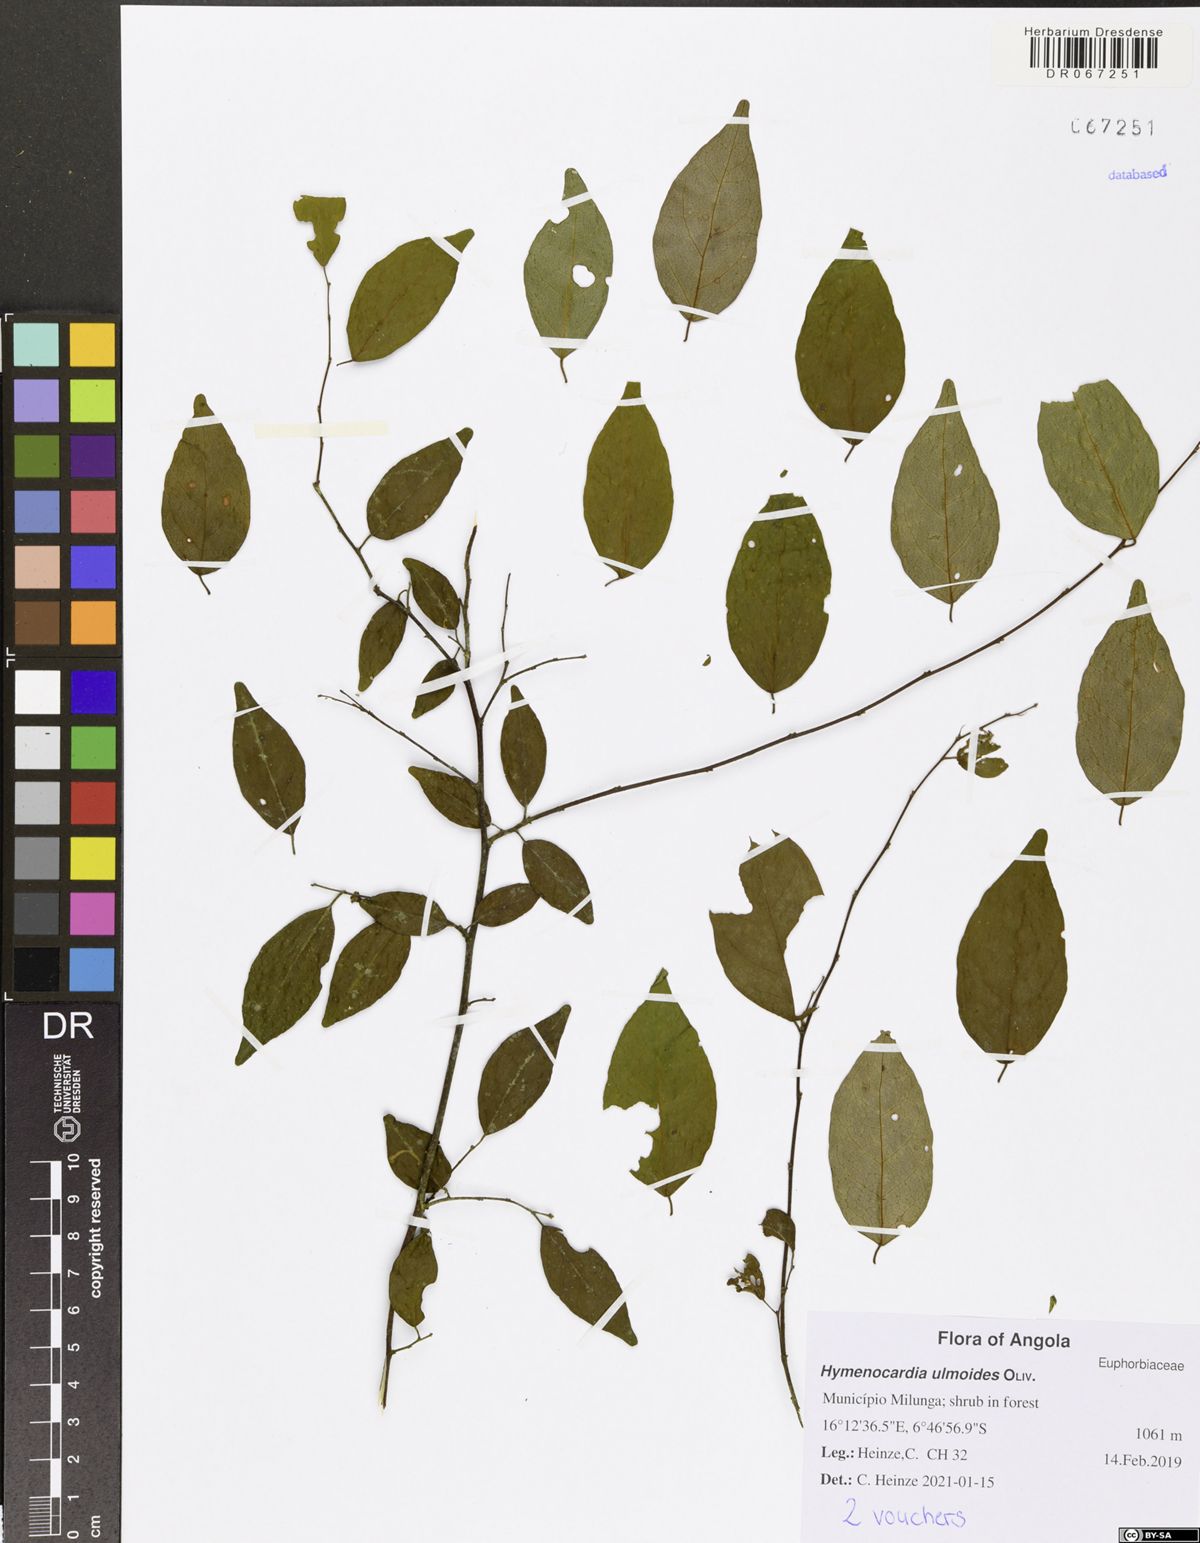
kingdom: Plantae
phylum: Tracheophyta
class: Magnoliopsida
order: Malpighiales
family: Phyllanthaceae
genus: Hymenocardia
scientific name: Hymenocardia ulmoides
